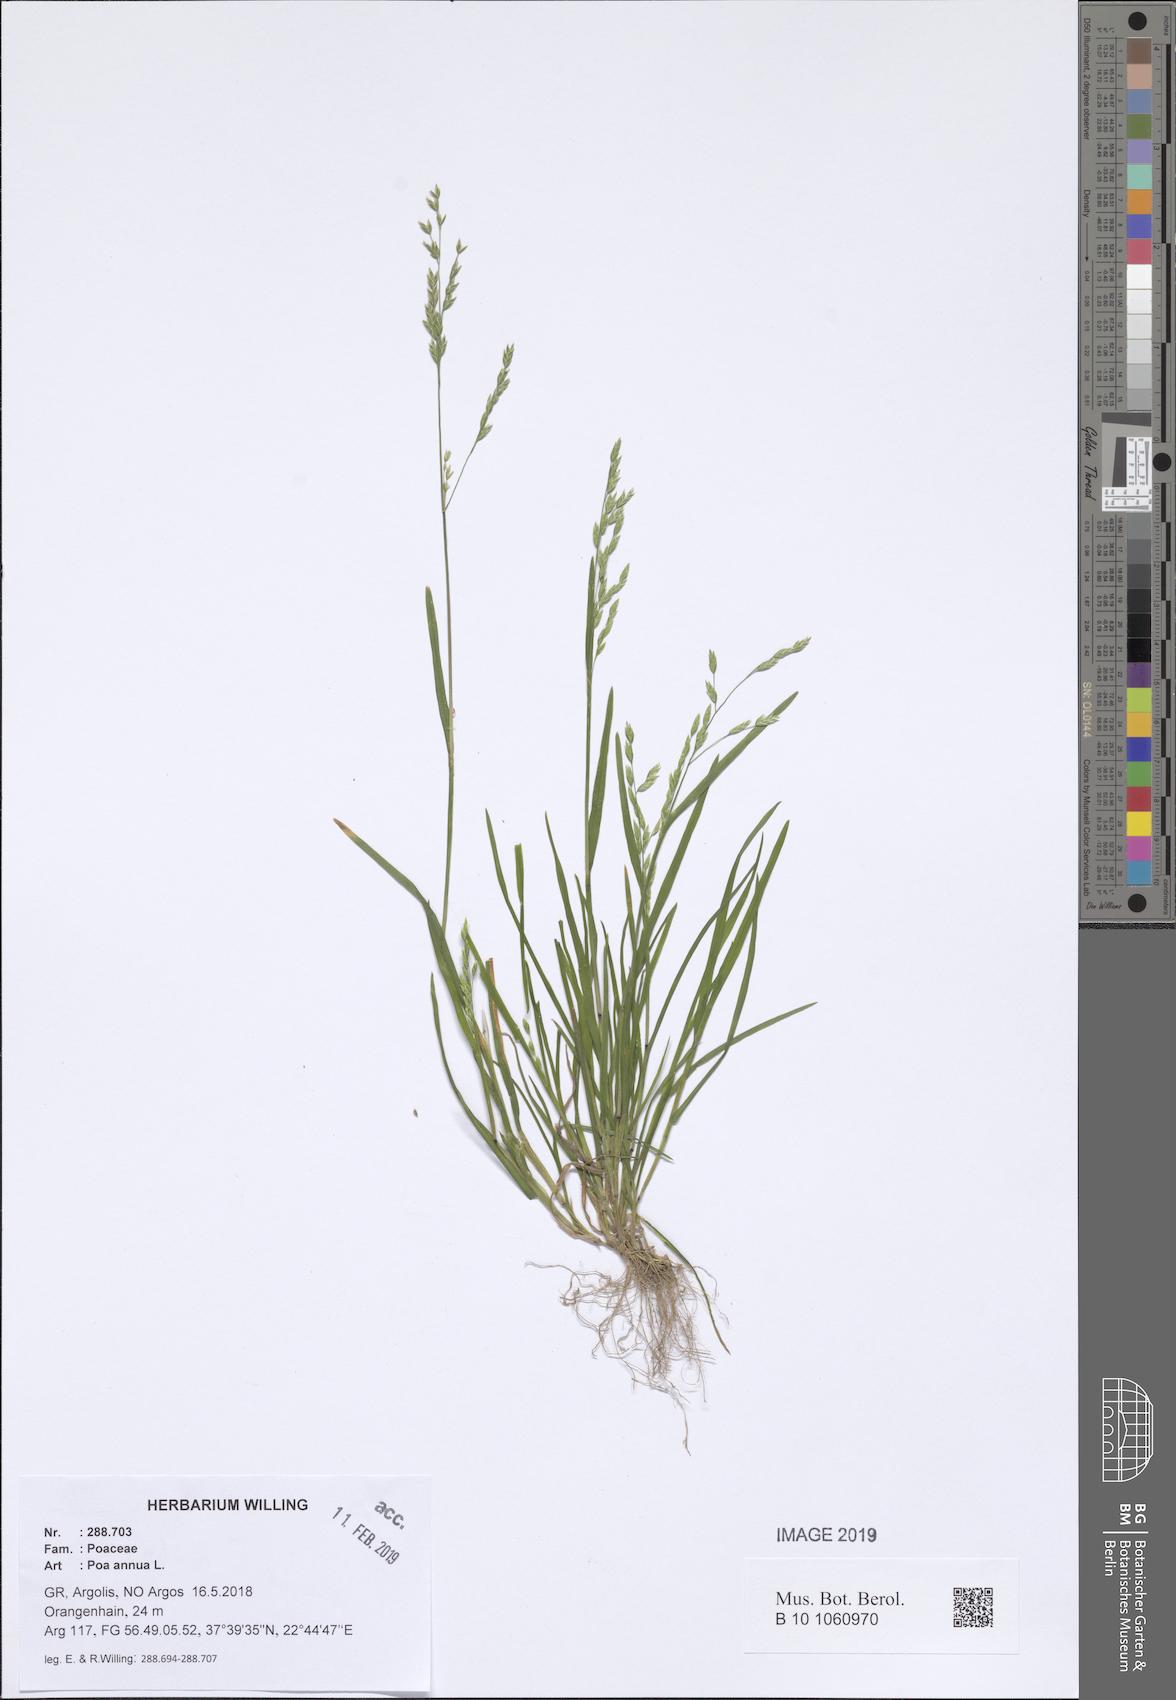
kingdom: Plantae
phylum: Tracheophyta
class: Liliopsida
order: Poales
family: Poaceae
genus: Poa
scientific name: Poa annua
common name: Annual bluegrass
